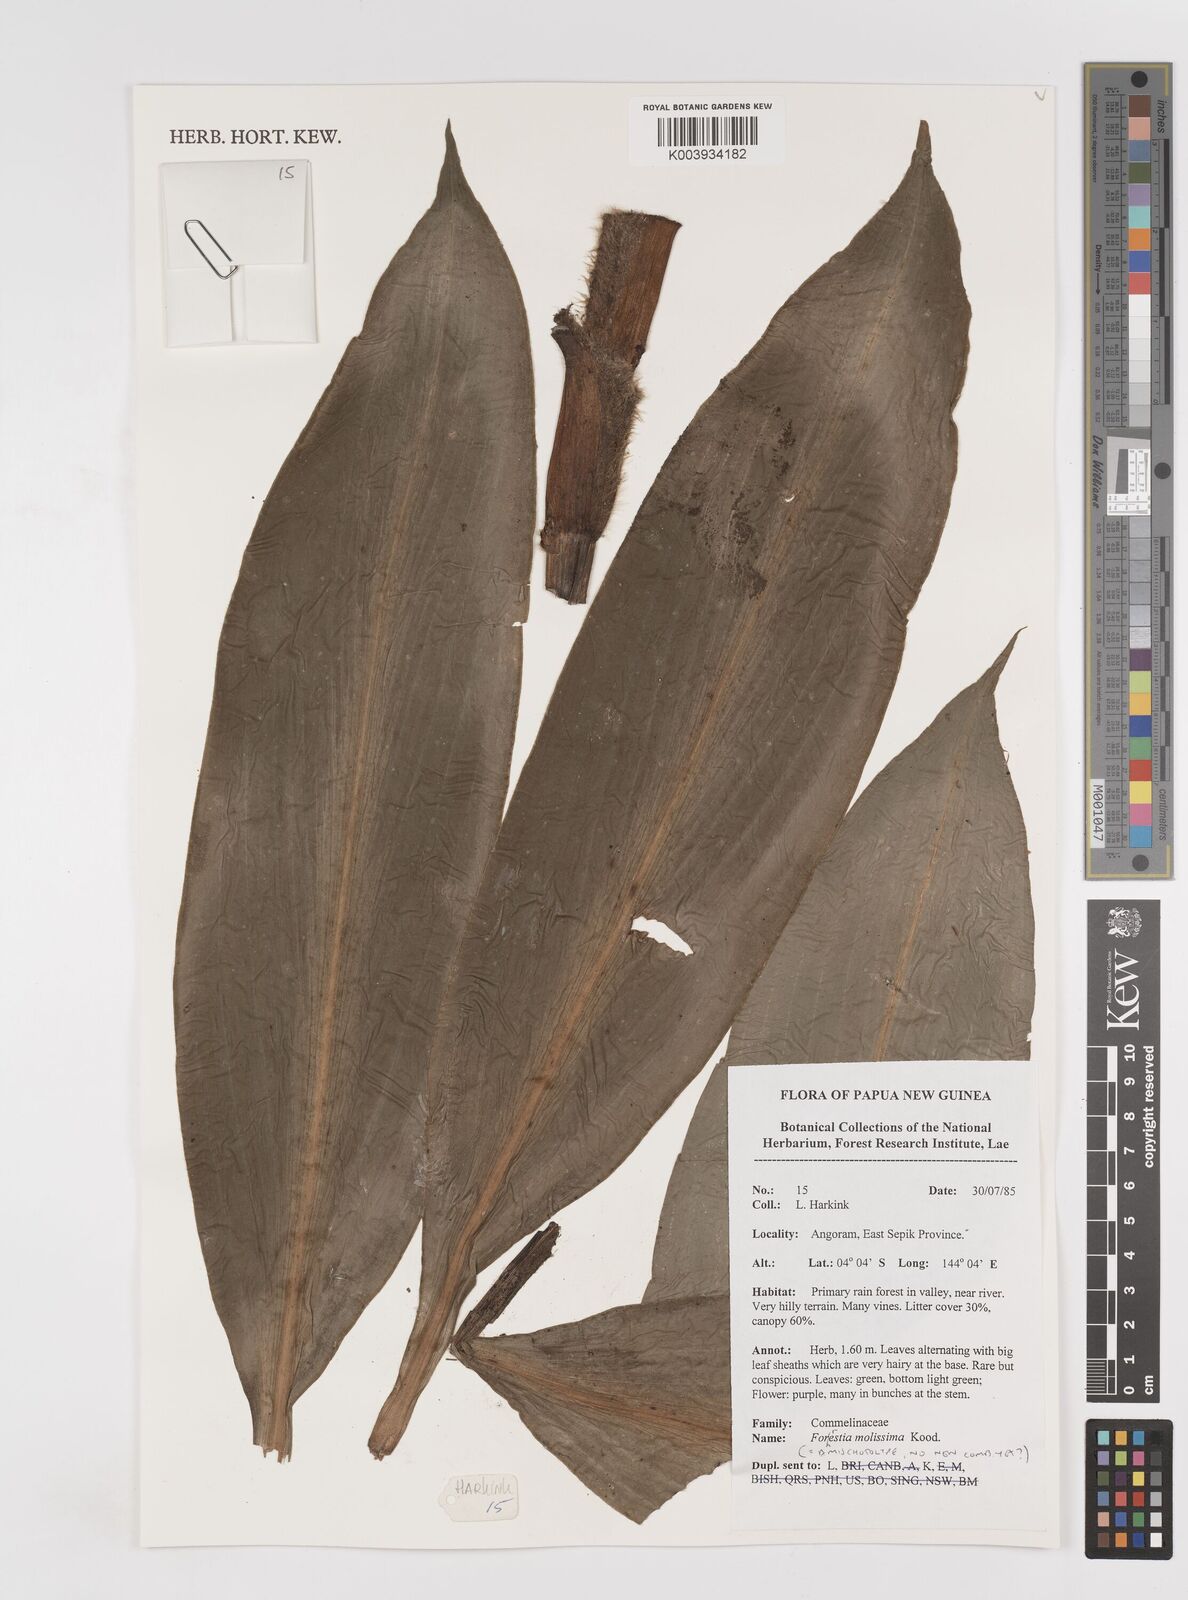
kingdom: Plantae
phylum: Tracheophyta
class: Liliopsida
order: Commelinales
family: Commelinaceae
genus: Amischotolype
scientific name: Amischotolype mollissima
